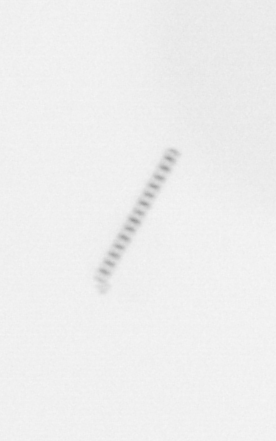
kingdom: Chromista
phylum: Ochrophyta
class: Bacillariophyceae
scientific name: Bacillariophyceae
